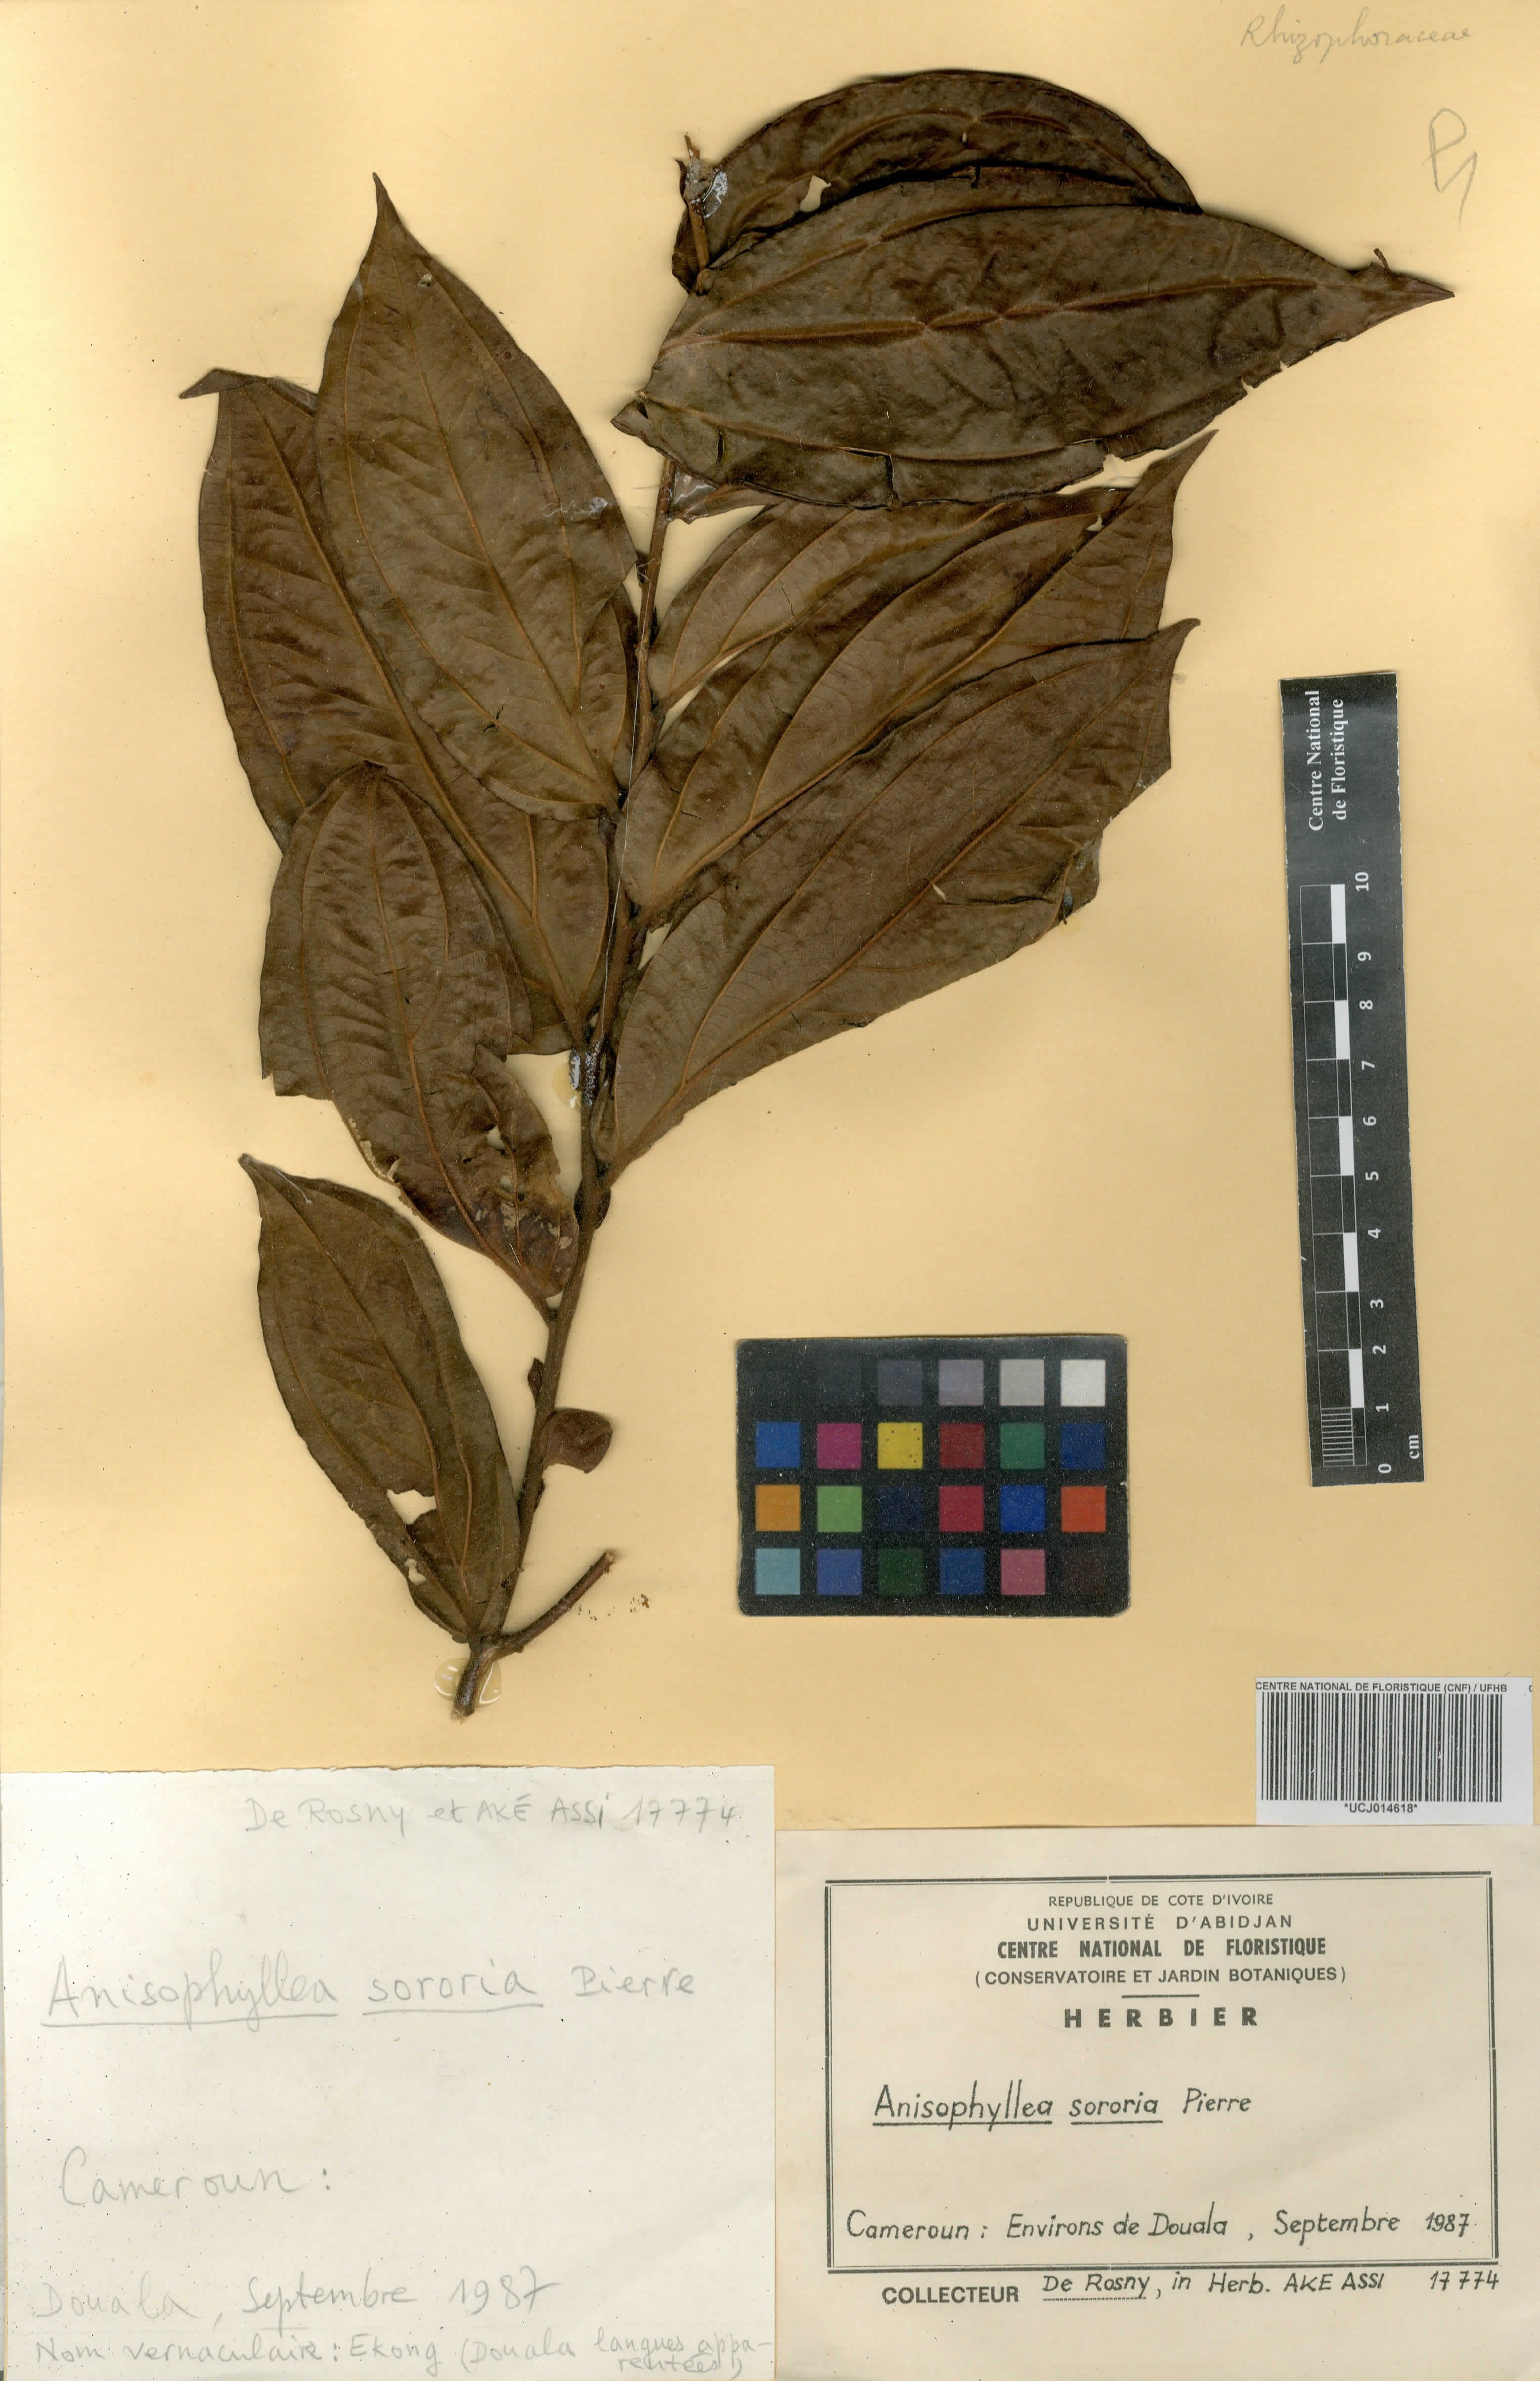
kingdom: Plantae
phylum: Tracheophyta
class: Magnoliopsida
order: Cucurbitales
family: Anisophylleaceae
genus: Anisophyllea
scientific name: Anisophyllea sororia
